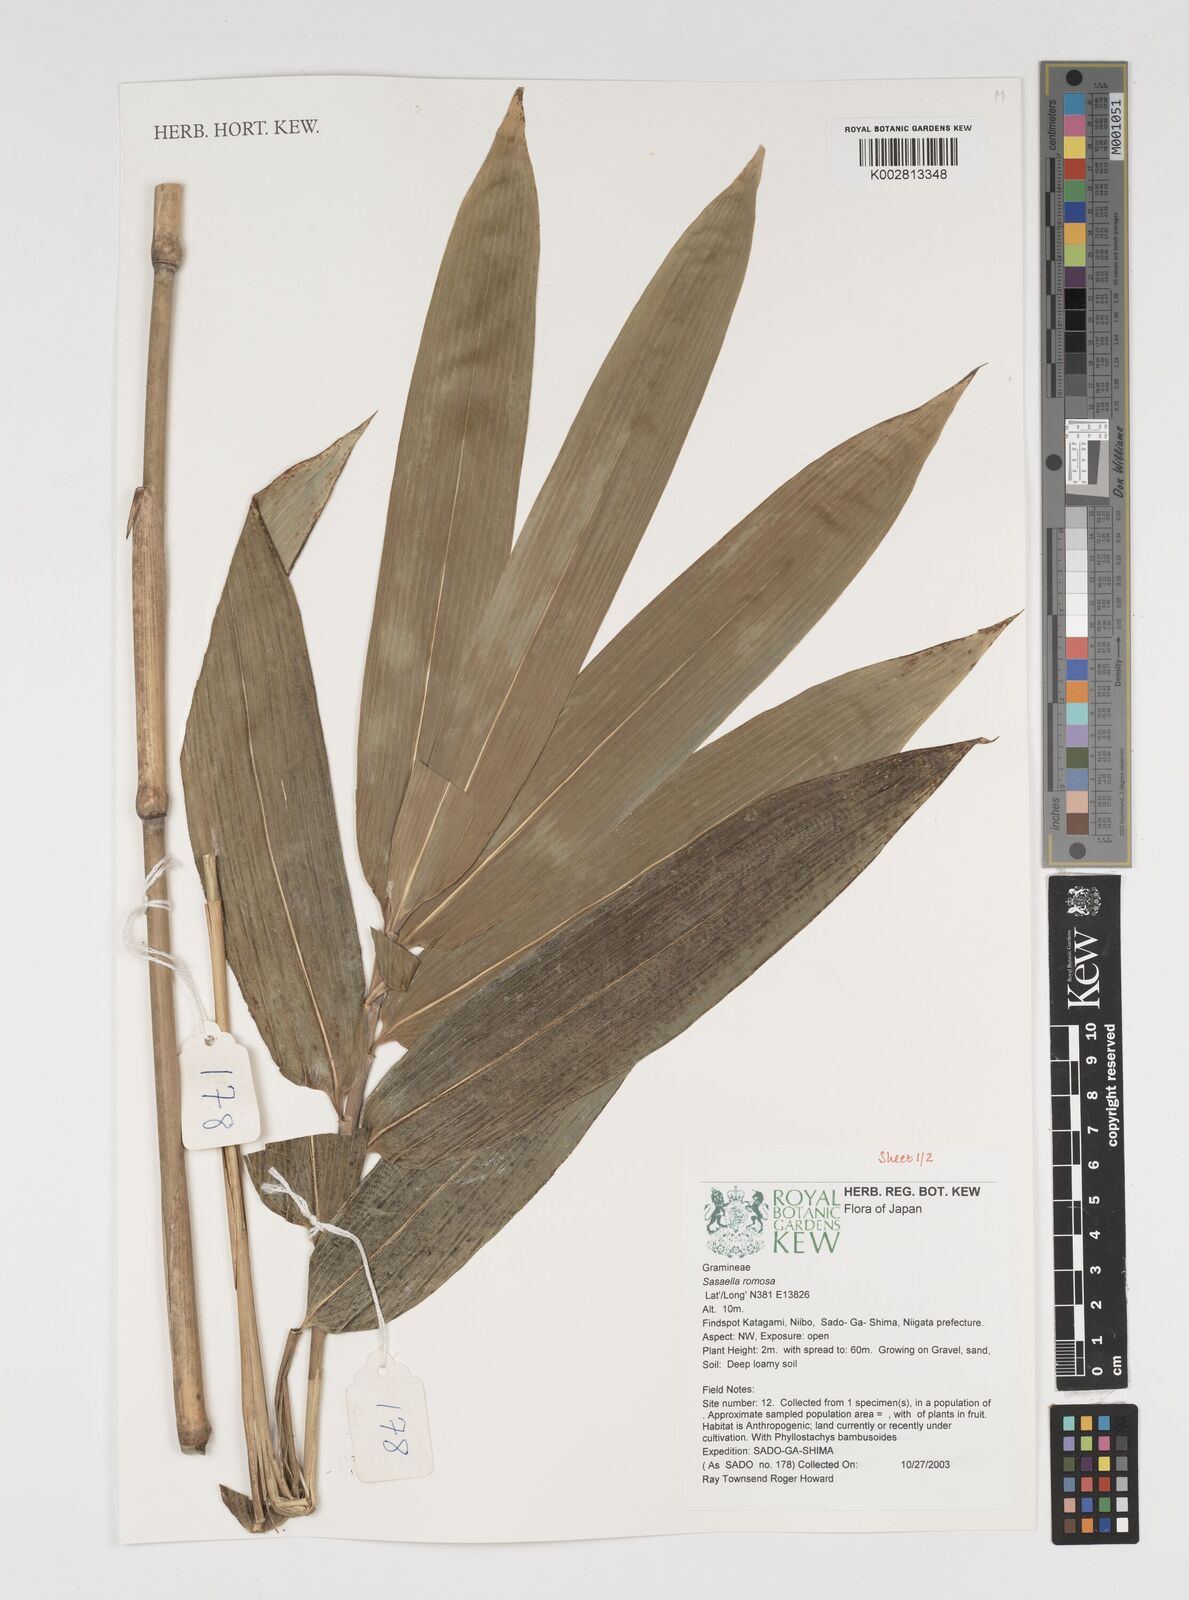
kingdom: Plantae
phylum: Tracheophyta
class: Liliopsida
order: Poales
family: Poaceae
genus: Sasaella
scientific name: Sasaella ramosa
